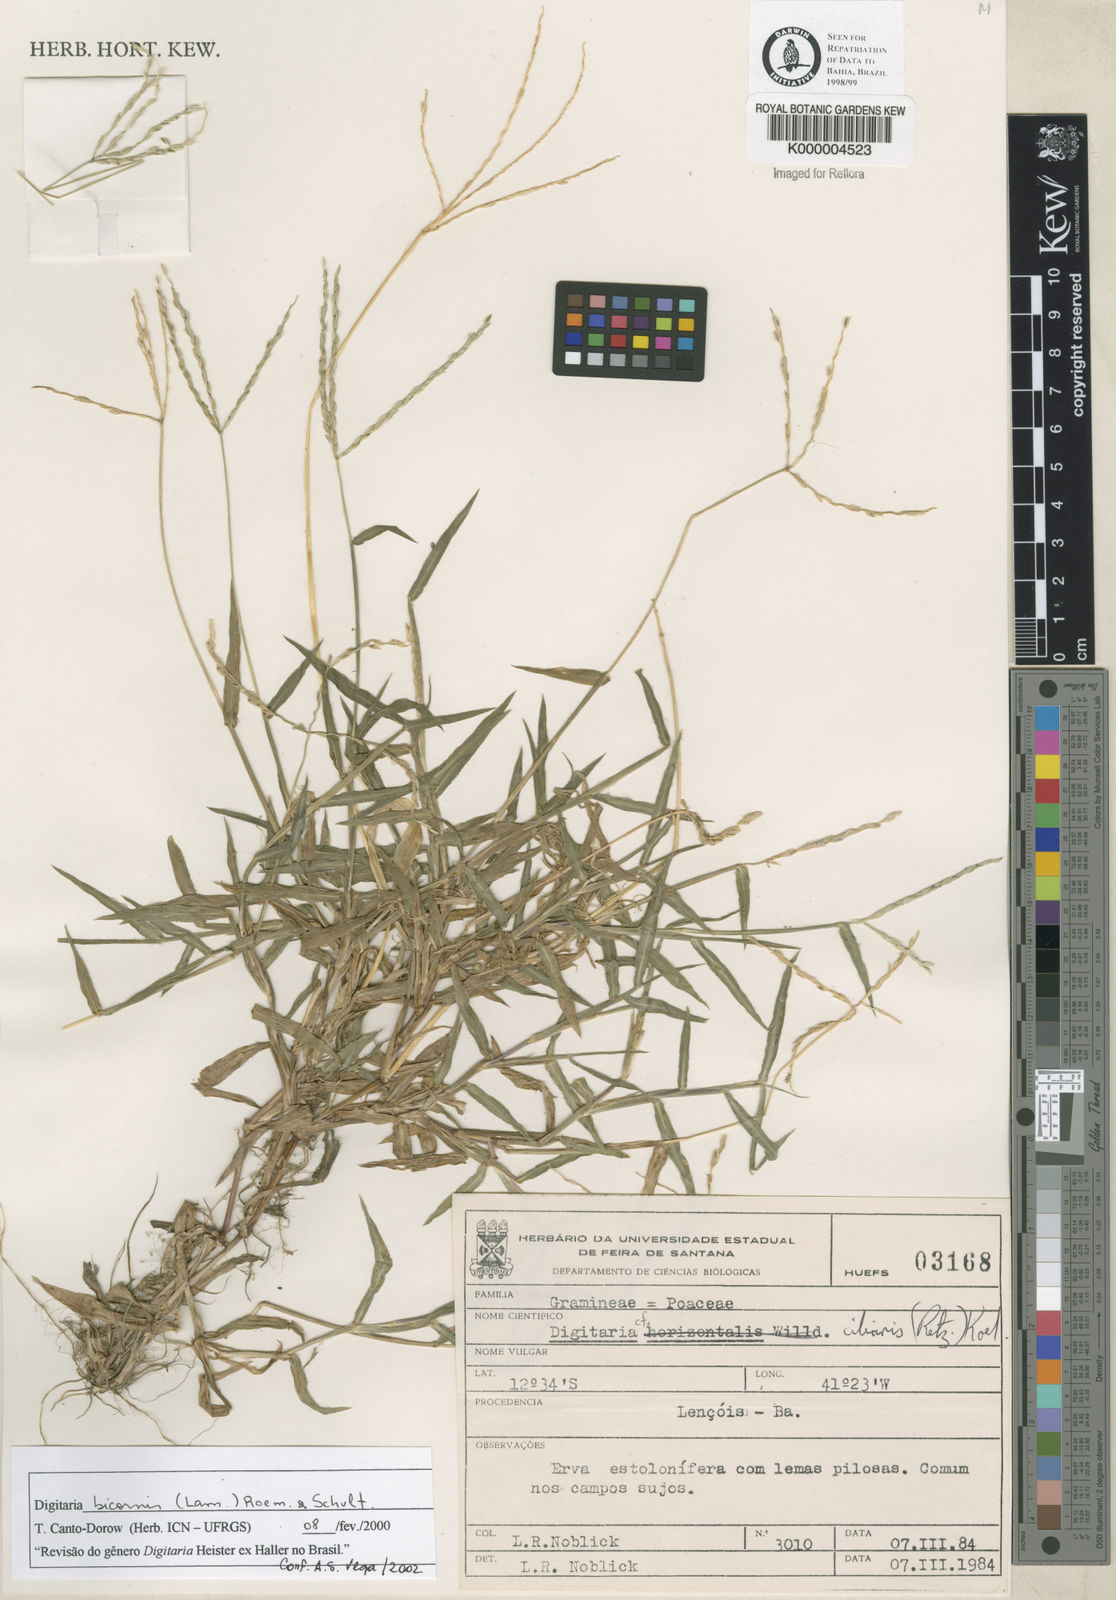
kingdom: Plantae
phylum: Tracheophyta
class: Liliopsida
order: Poales
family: Poaceae
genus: Digitaria
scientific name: Digitaria ciliaris
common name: Tropical finger-grass
